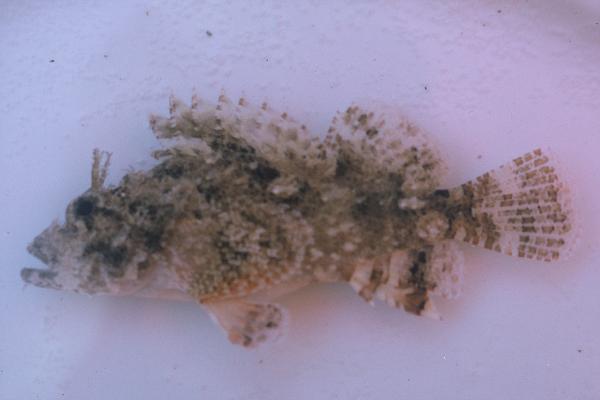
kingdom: Animalia
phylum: Chordata
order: Scorpaeniformes
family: Scorpaenidae
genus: Scorpaenopsis
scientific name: Scorpaenopsis
